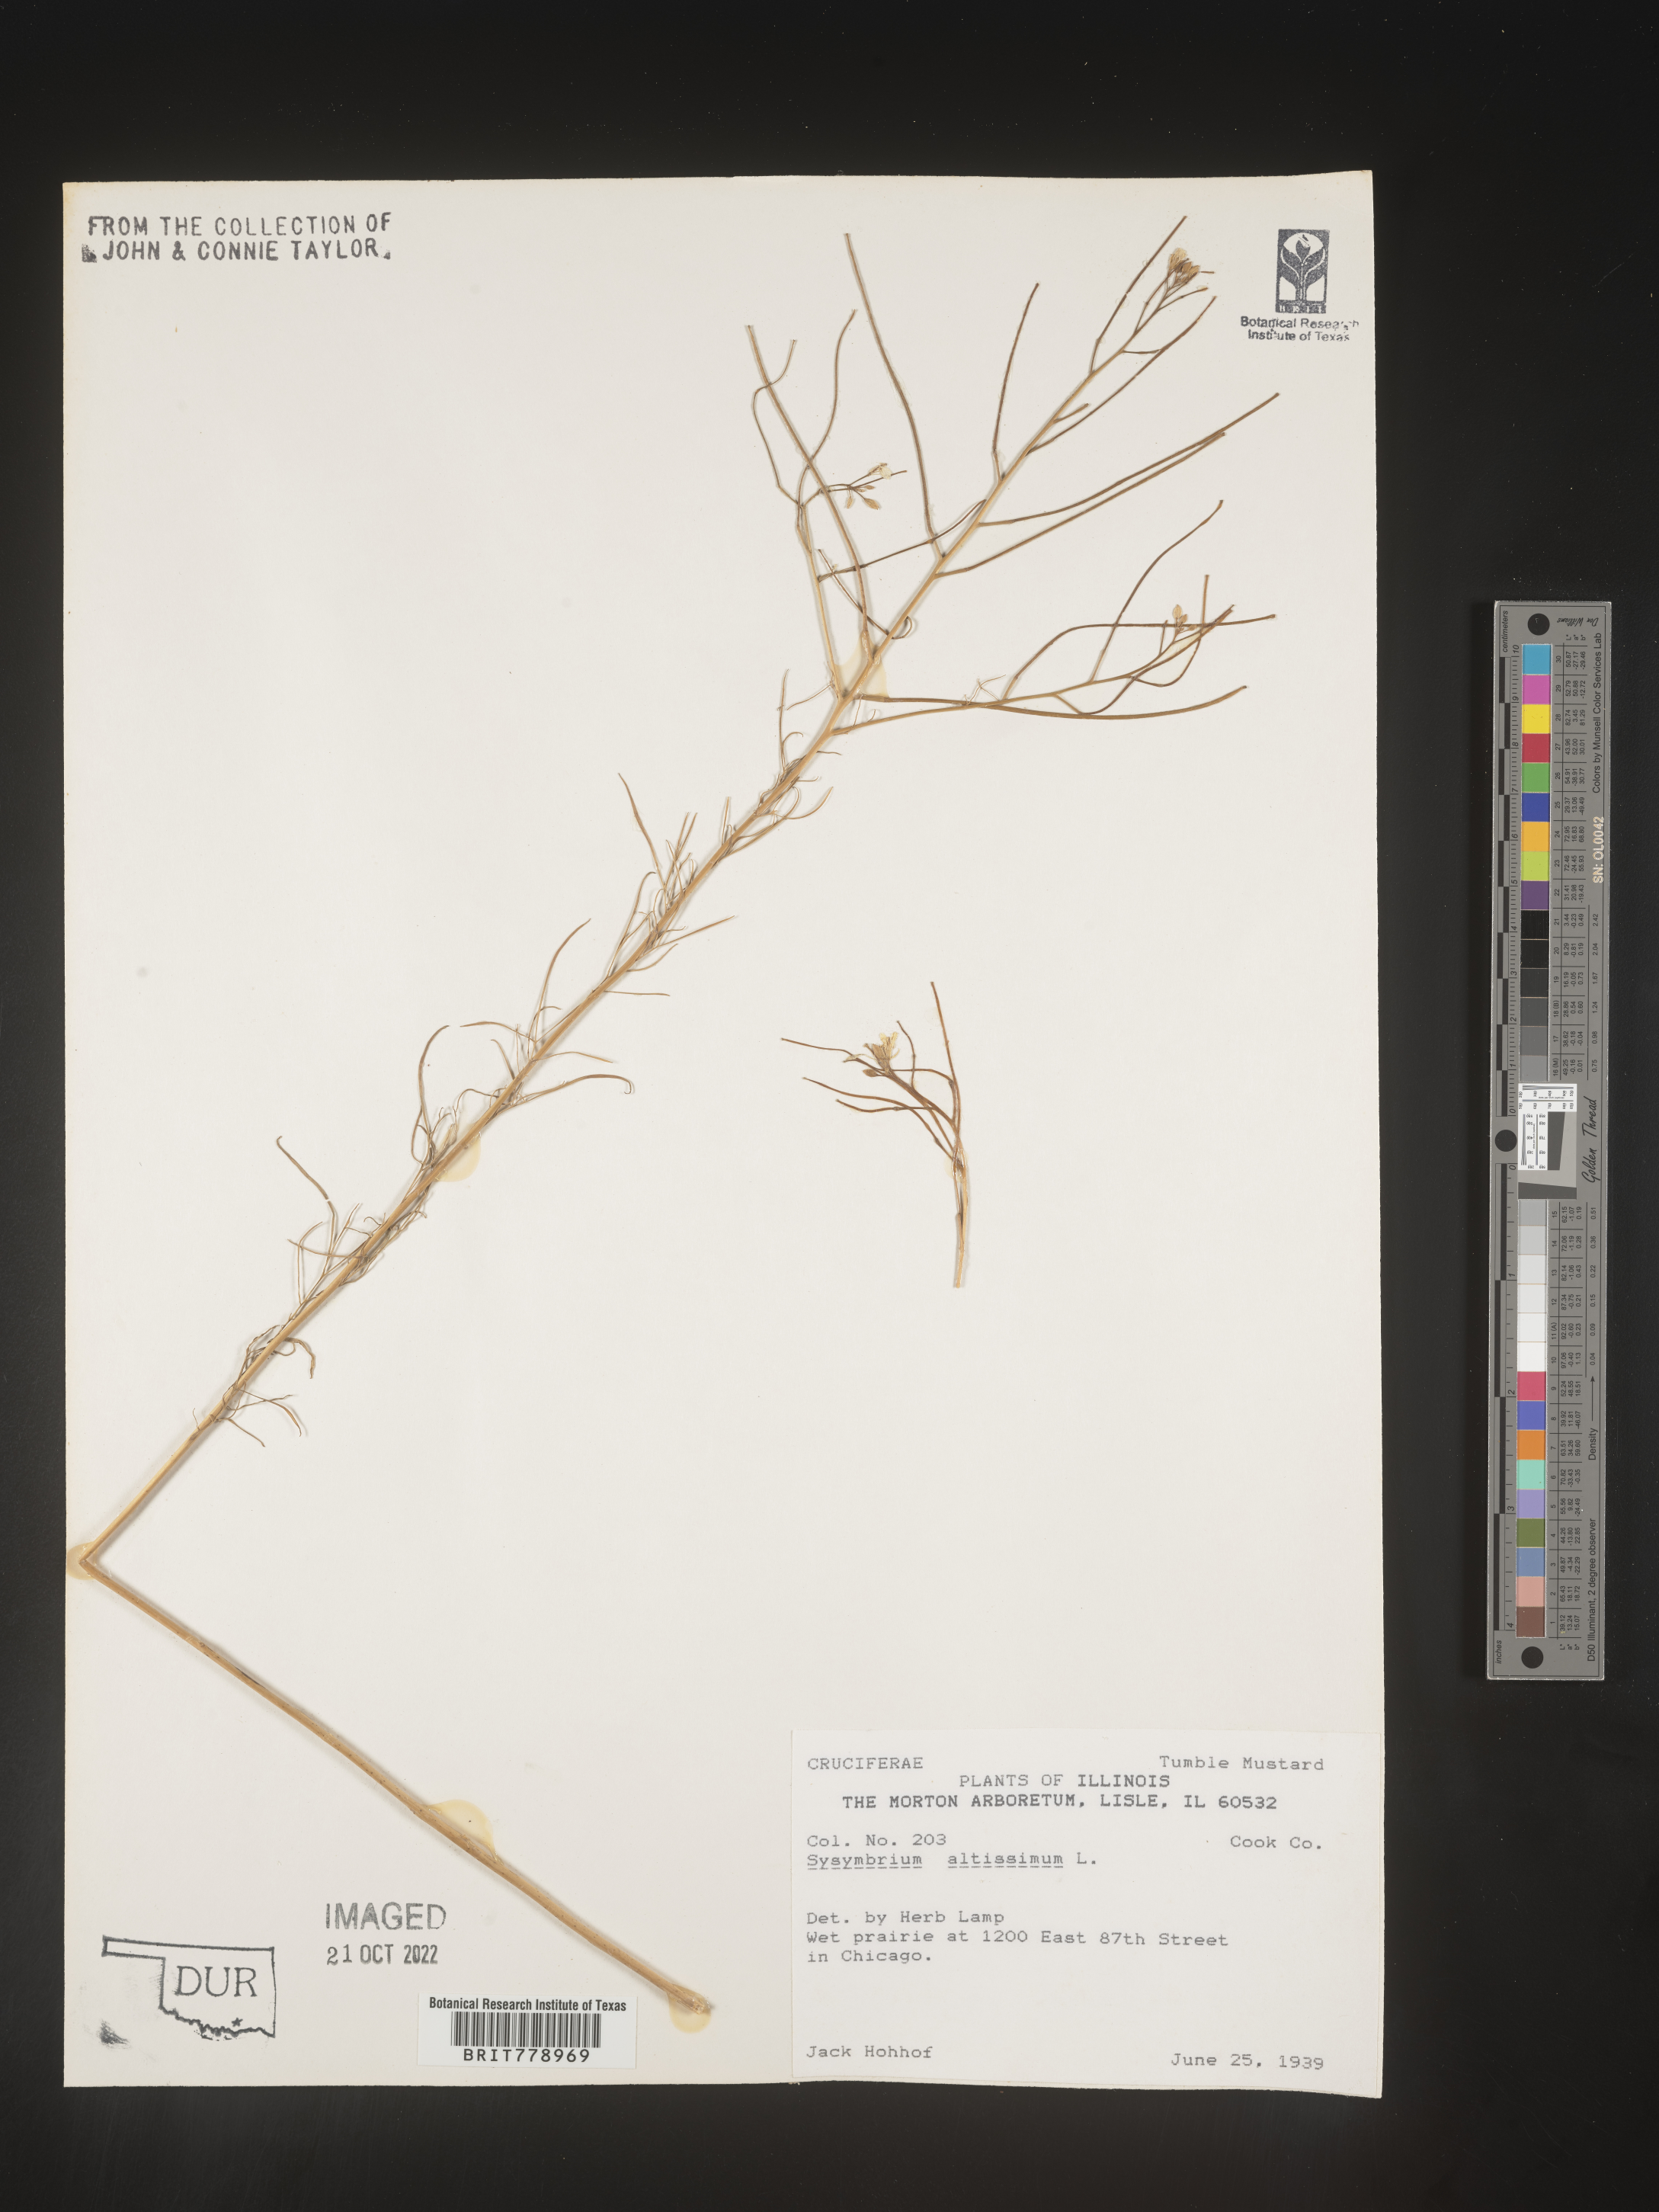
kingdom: Plantae
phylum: Tracheophyta
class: Magnoliopsida
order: Brassicales
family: Brassicaceae
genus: Sisymbrium
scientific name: Sisymbrium altissimum
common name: Tall rocket
